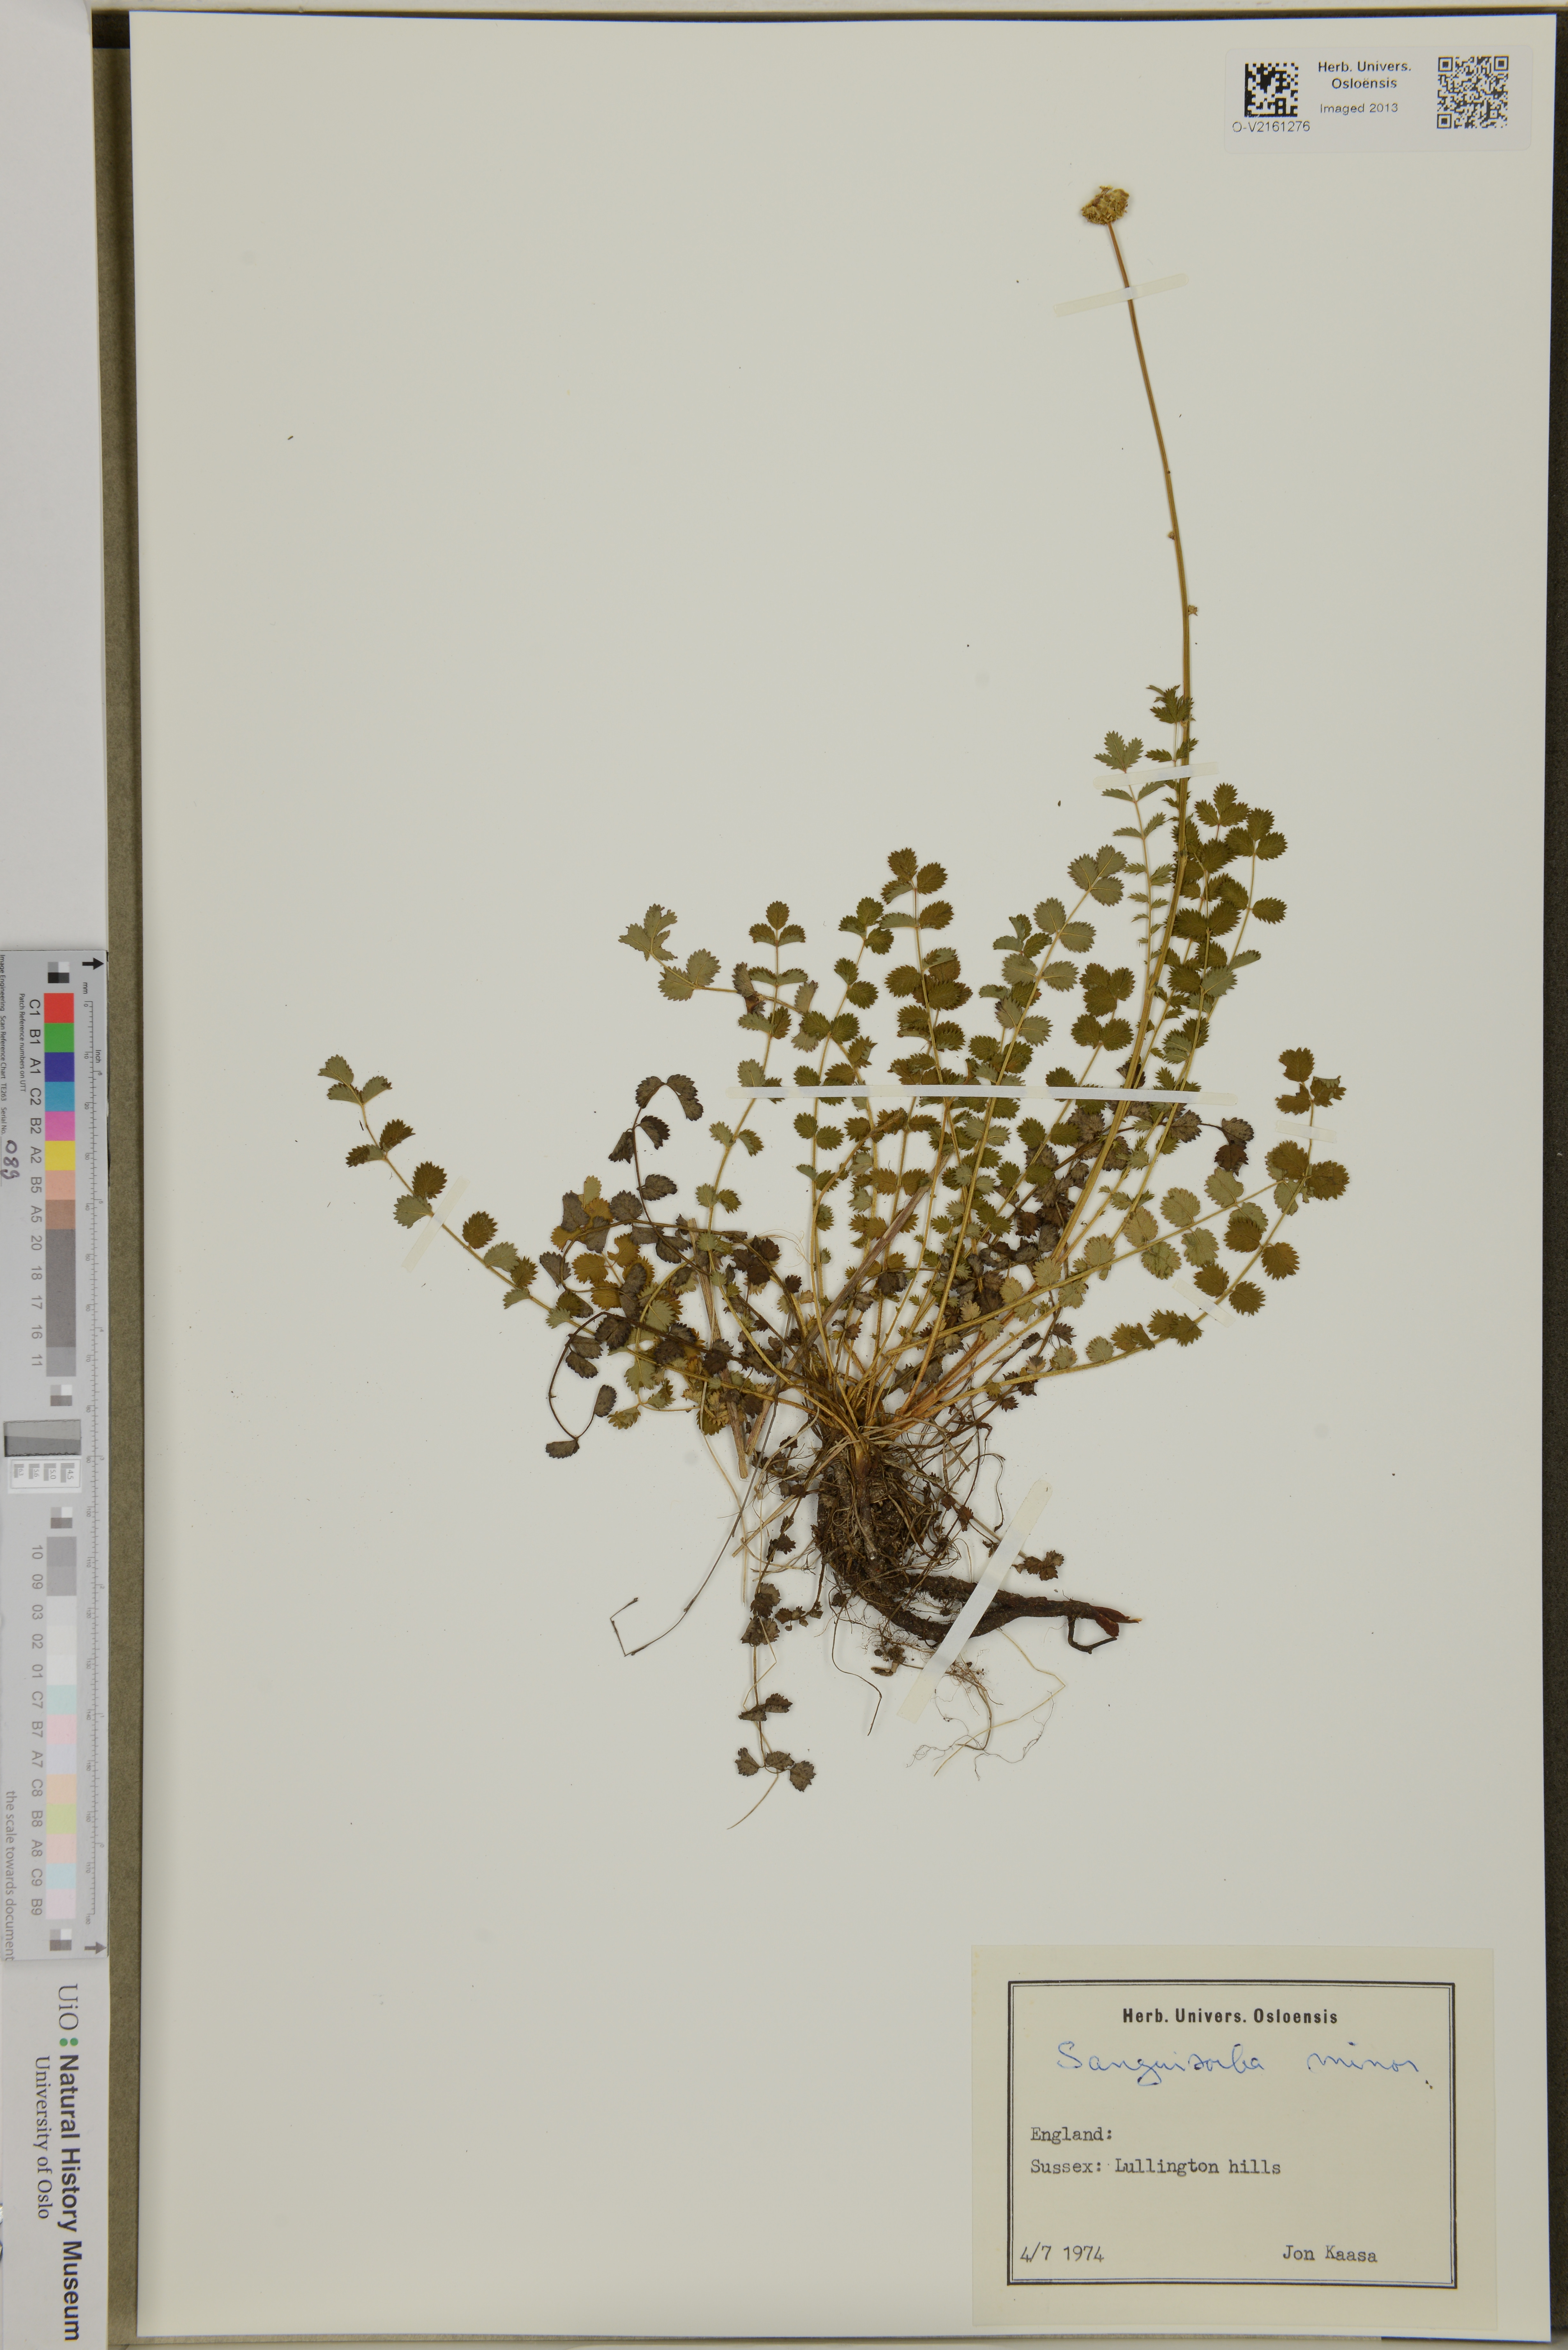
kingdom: Plantae
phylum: Tracheophyta
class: Magnoliopsida
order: Rosales
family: Rosaceae
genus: Poterium
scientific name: Poterium sanguisorba
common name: Salad burnet
